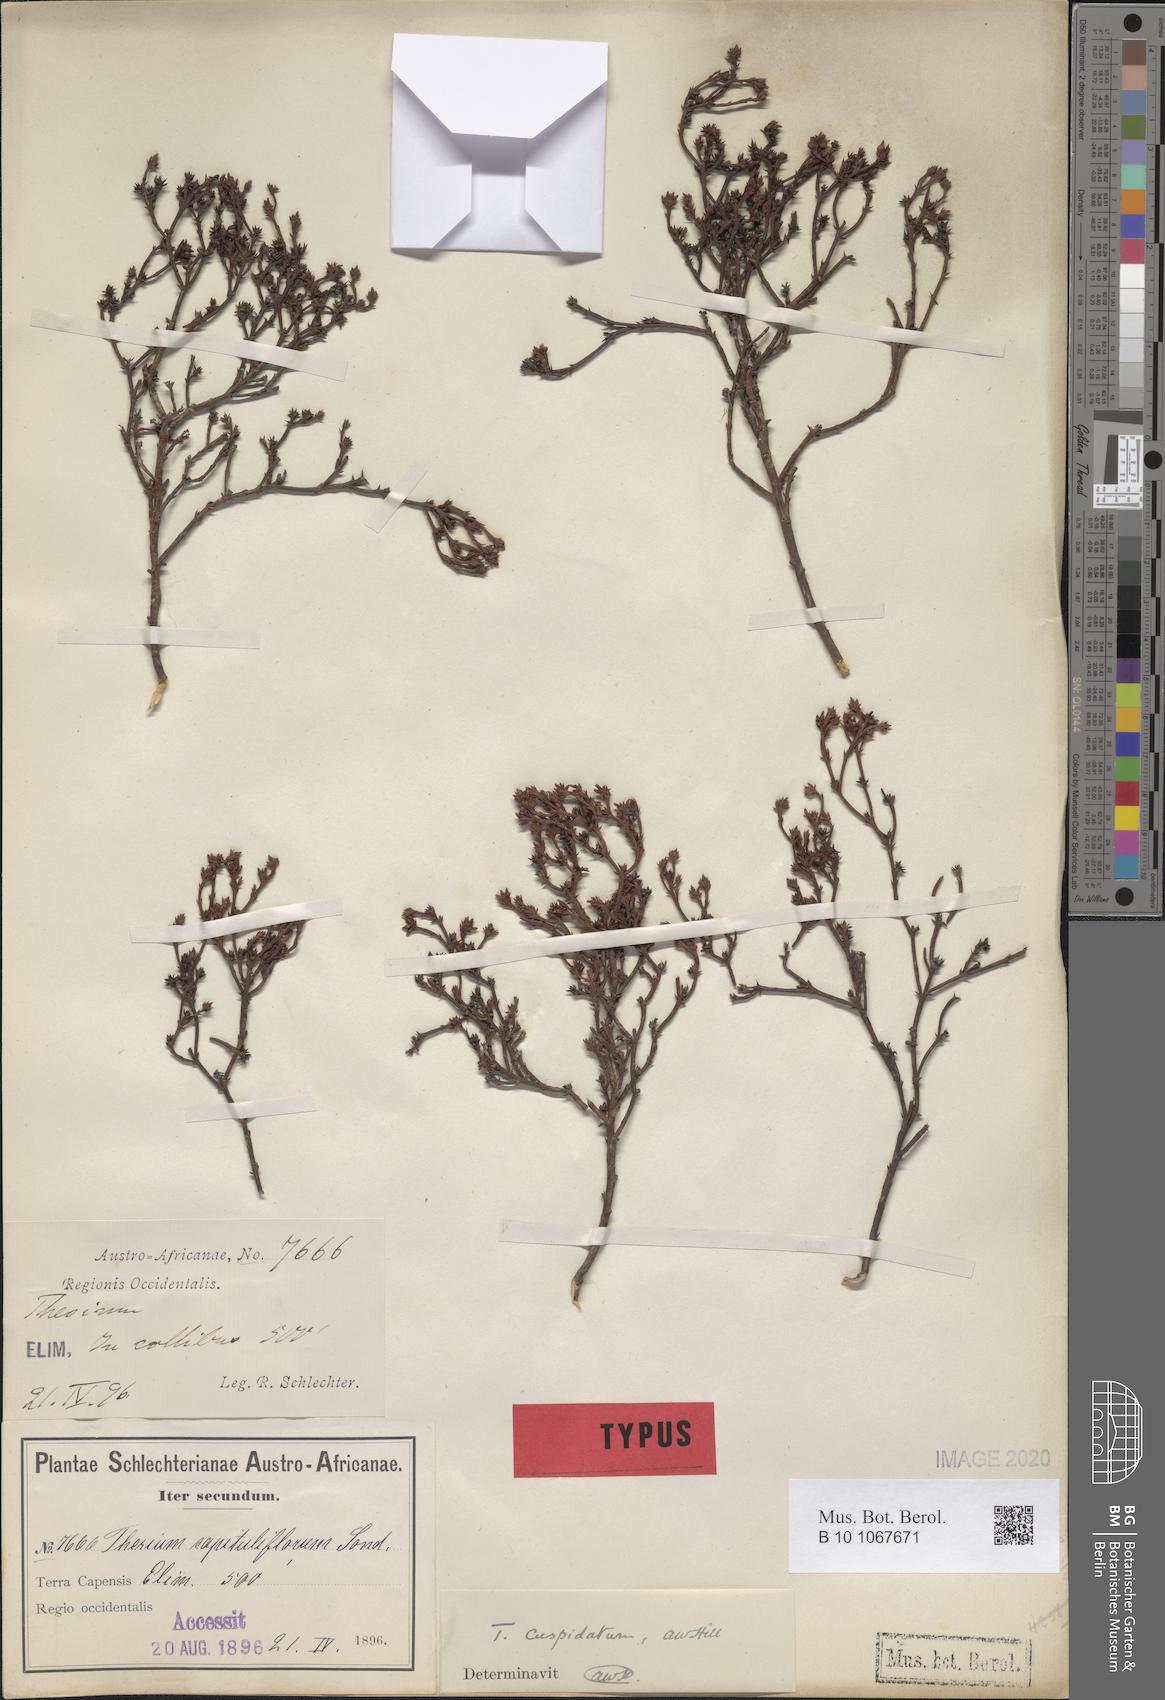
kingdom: Plantae
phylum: Tracheophyta
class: Magnoliopsida
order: Santalales
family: Thesiaceae
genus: Thesium
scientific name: Thesium capituliflorum
